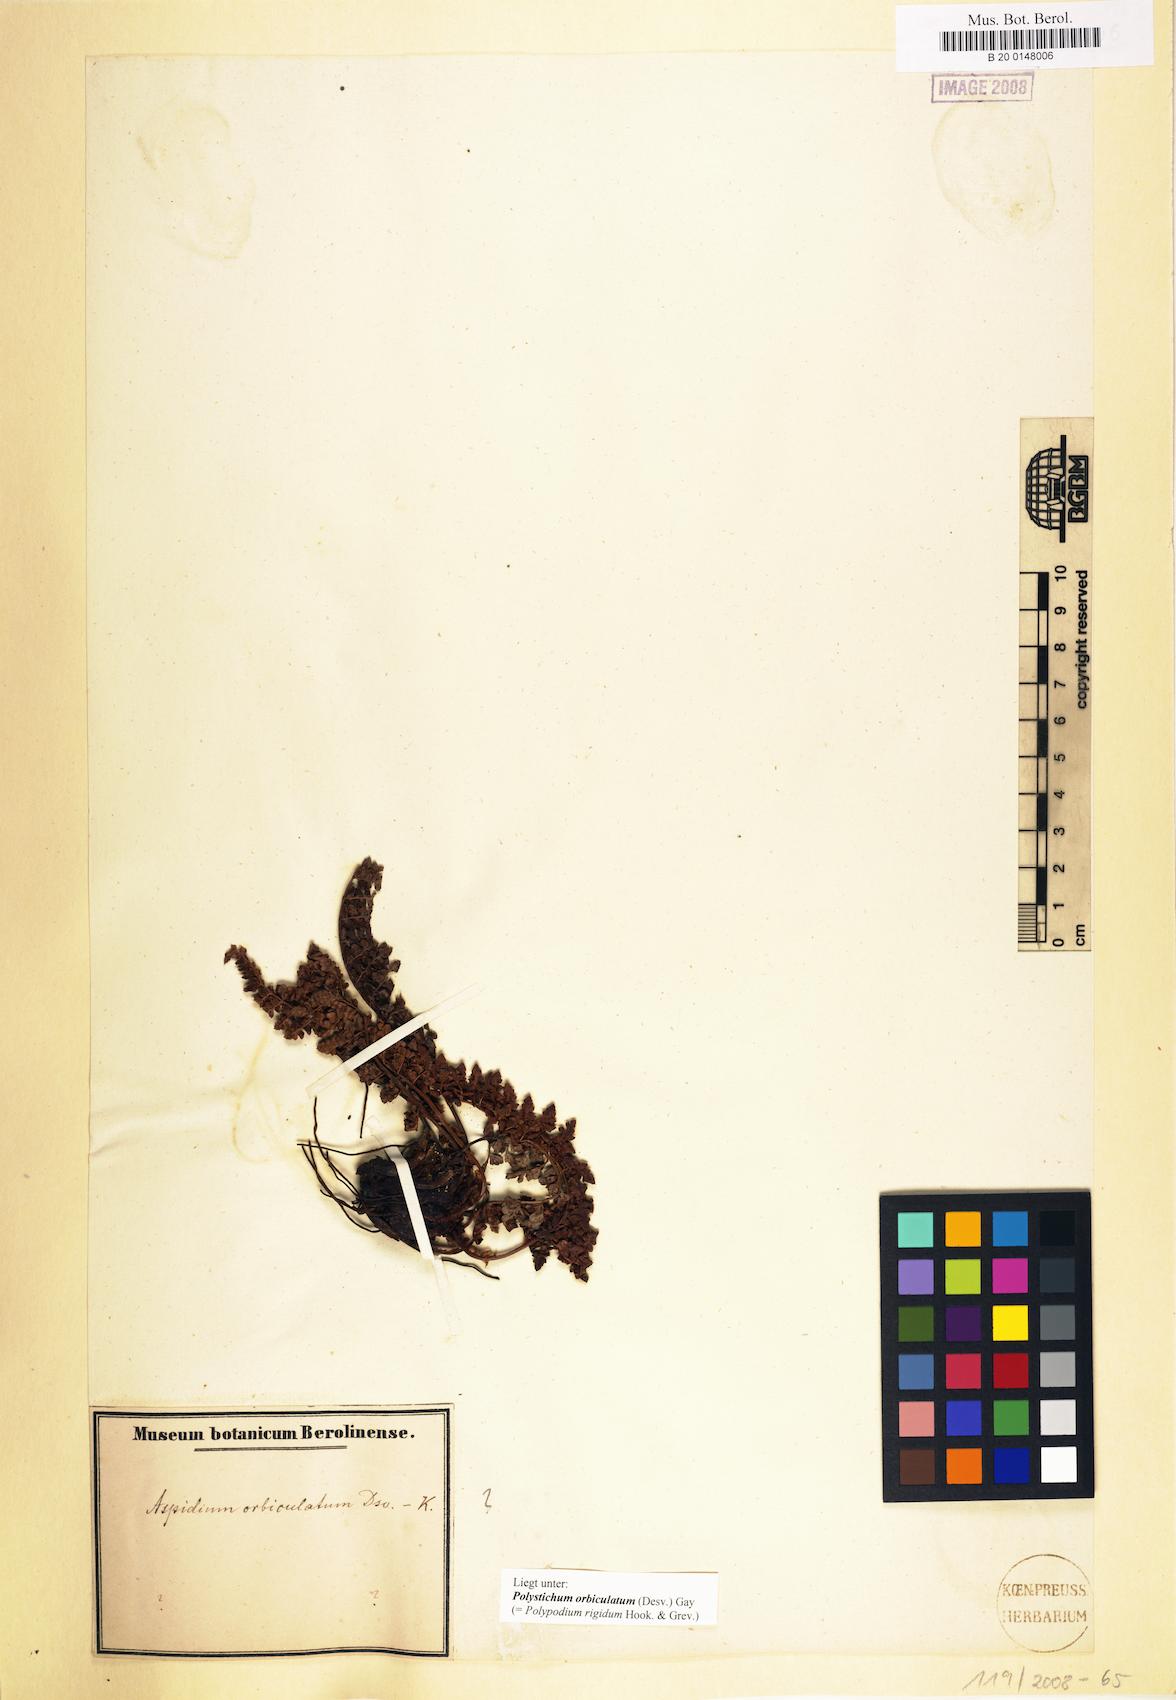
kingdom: Plantae
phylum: Tracheophyta
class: Polypodiopsida
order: Polypodiales
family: Dryopteridaceae
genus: Polystichum
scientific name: Polystichum orbiculatum
